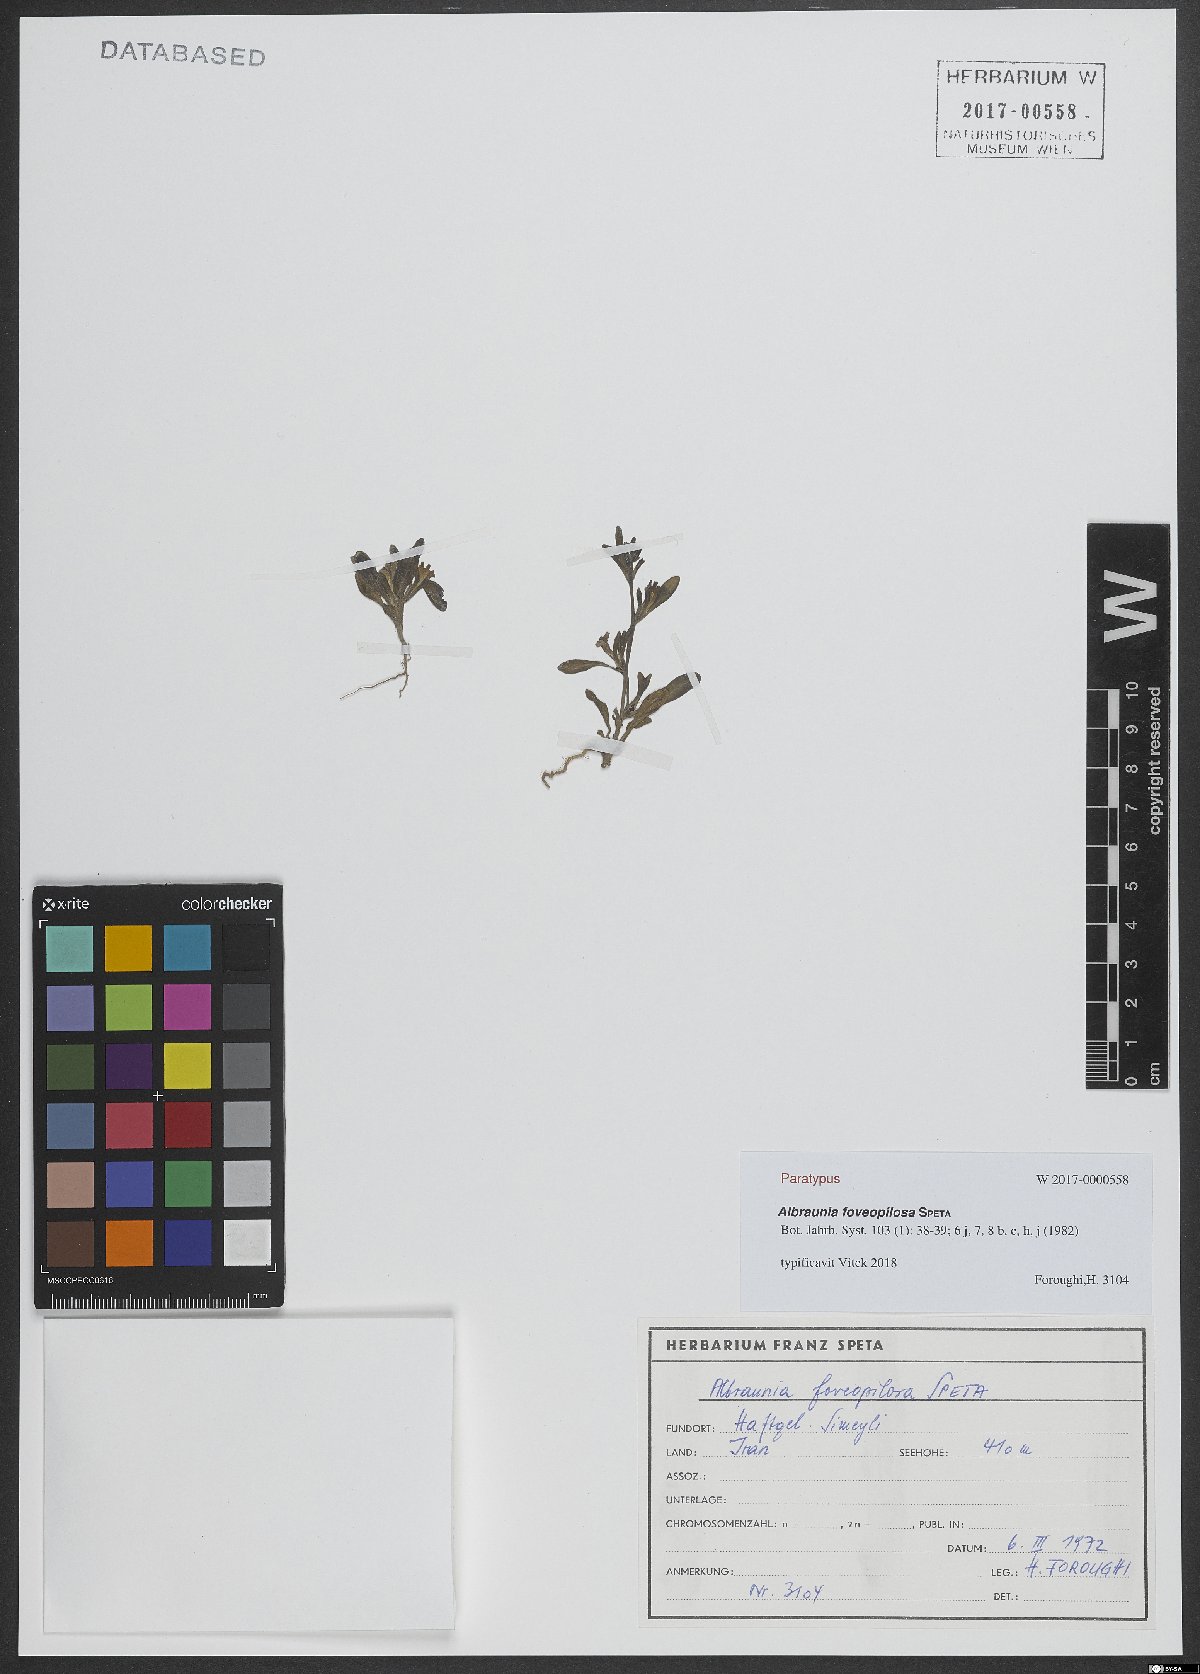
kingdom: Plantae
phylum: Tracheophyta
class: Magnoliopsida
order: Lamiales
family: Plantaginaceae
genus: Albraunia
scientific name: Albraunia foveopilosa
